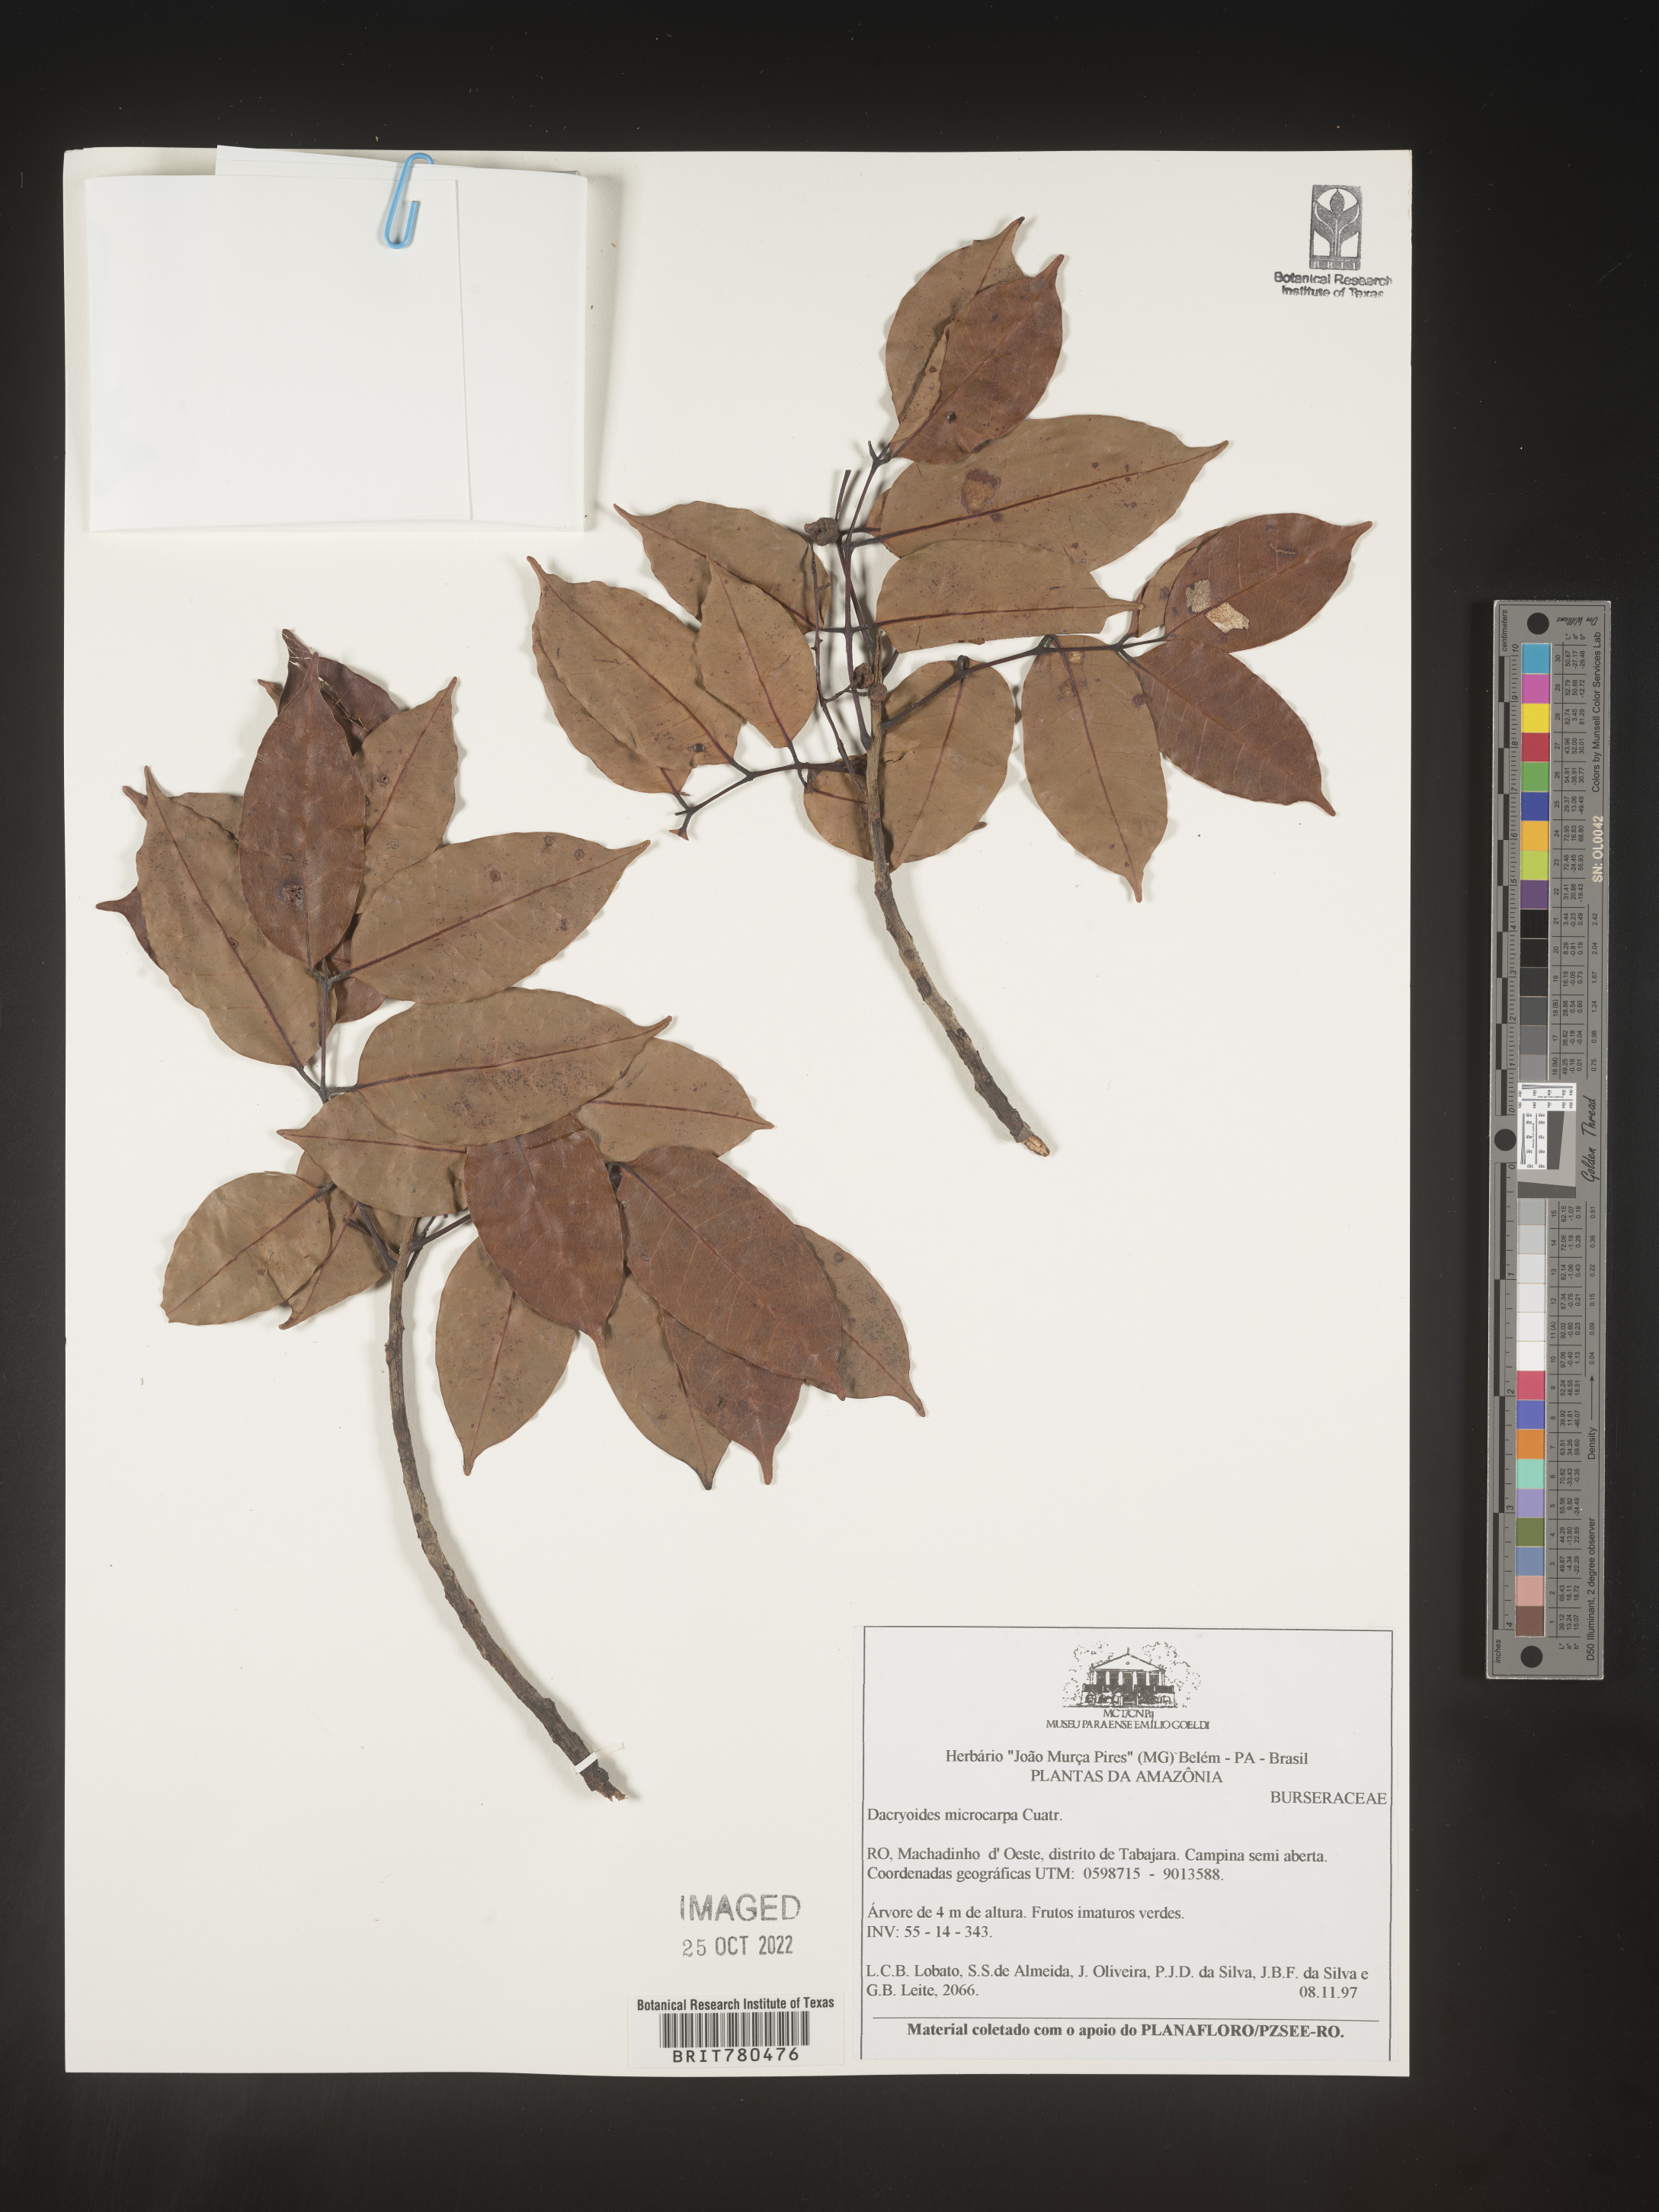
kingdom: Plantae
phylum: Tracheophyta
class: Magnoliopsida
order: Sapindales
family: Burseraceae
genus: Dacryodes
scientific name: Dacryodes
